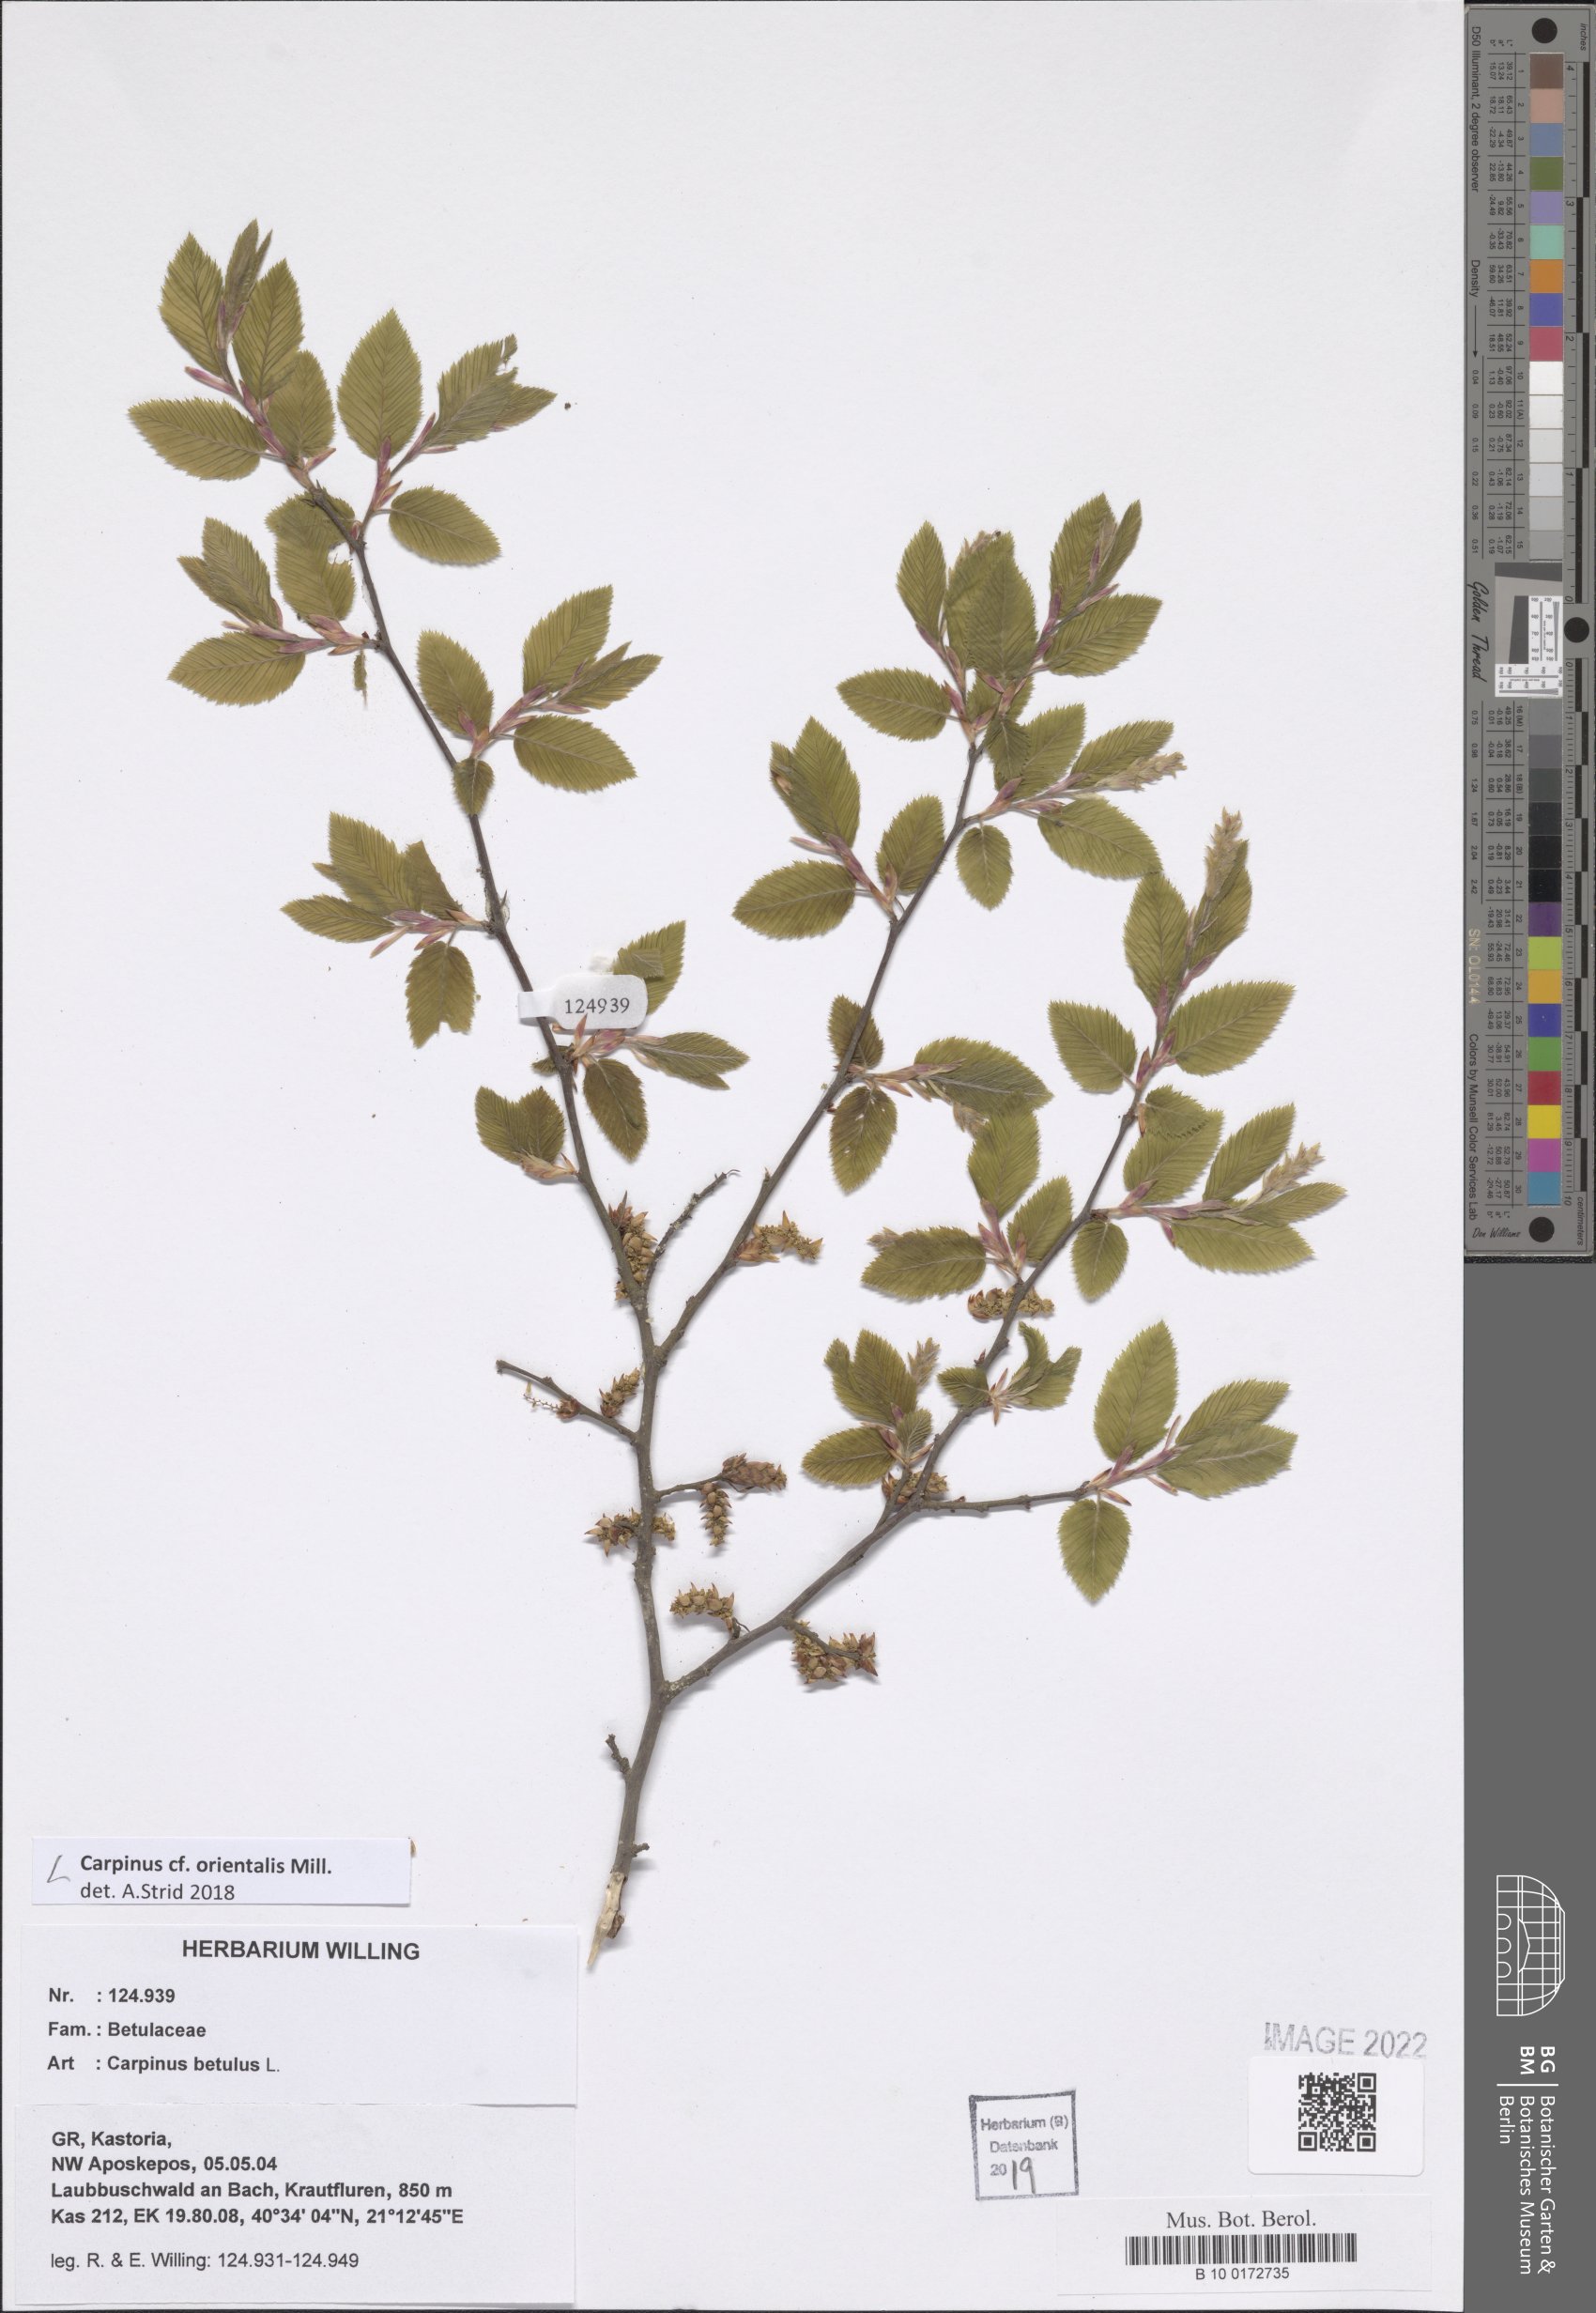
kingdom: Plantae
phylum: Tracheophyta
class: Magnoliopsida
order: Fagales
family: Betulaceae
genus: Carpinus
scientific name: Carpinus orientalis
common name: Eastern hornbeam
